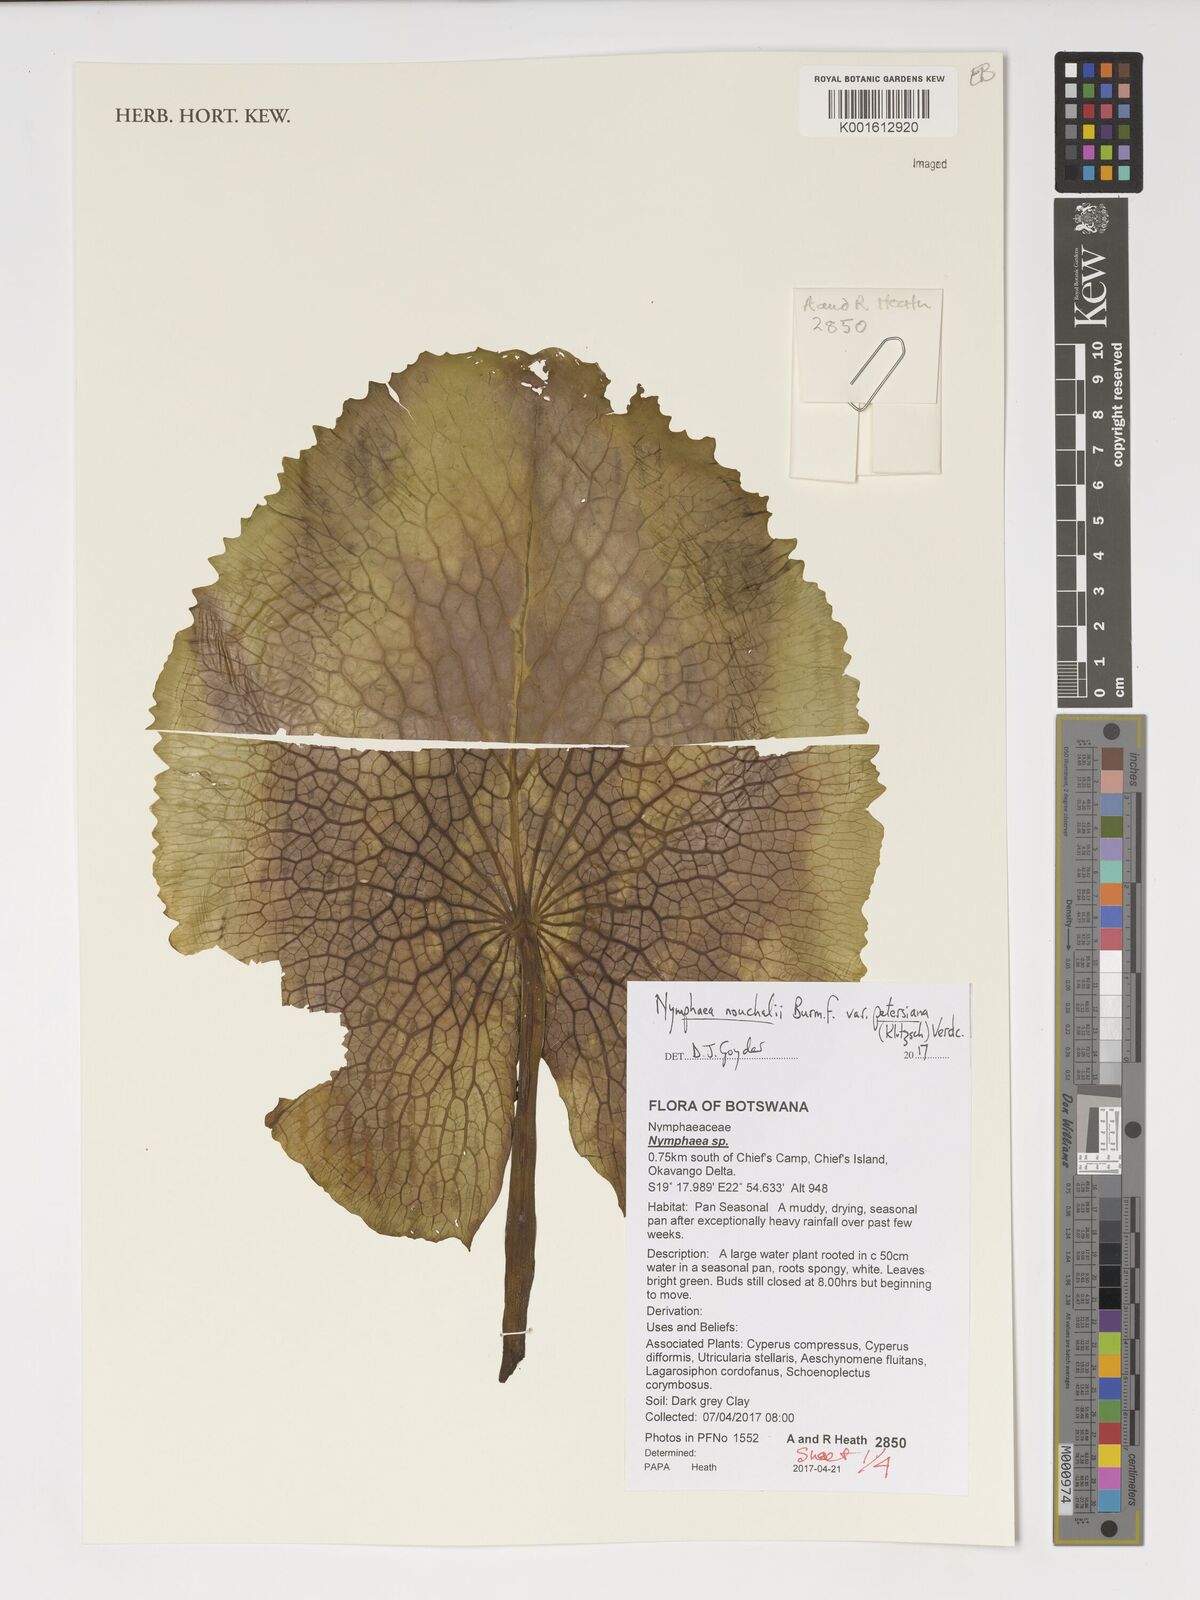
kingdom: Plantae
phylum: Tracheophyta
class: Magnoliopsida
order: Nymphaeales
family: Nymphaeaceae
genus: Nymphaea
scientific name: Nymphaea nouchali
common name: Blue lotus
